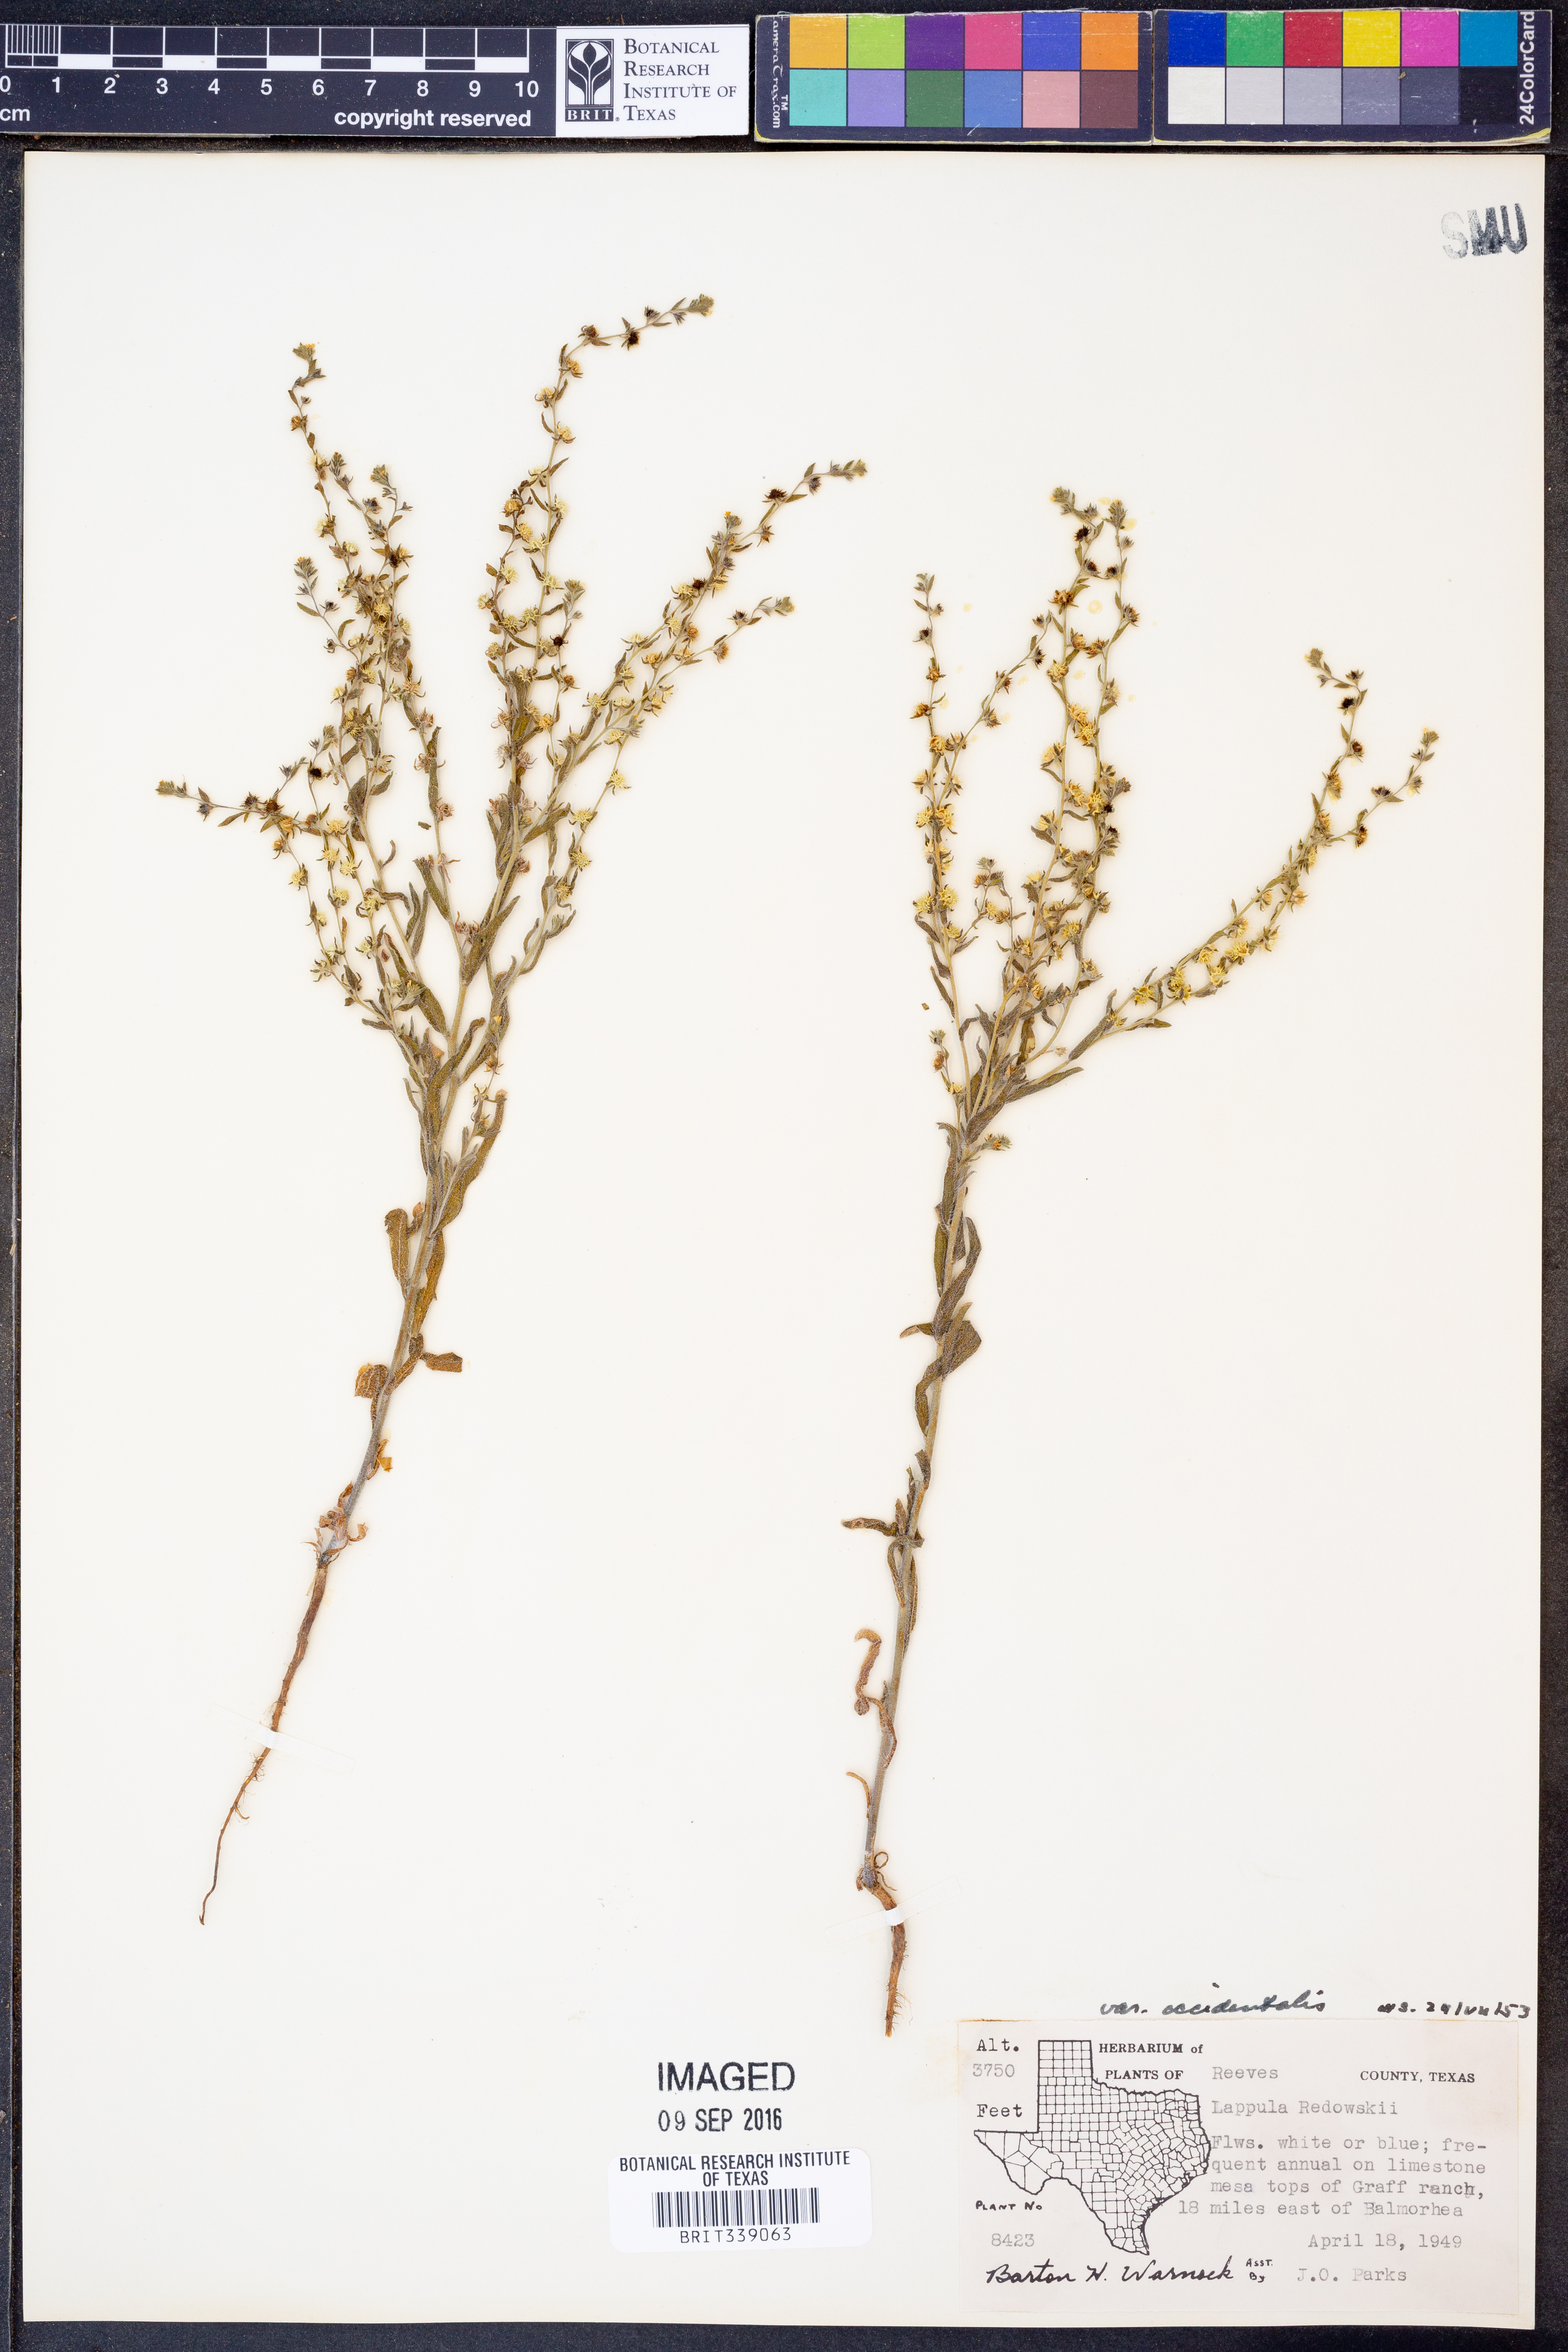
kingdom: Plantae
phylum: Tracheophyta
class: Magnoliopsida
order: Boraginales
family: Boraginaceae
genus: Lappula
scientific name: Lappula occidentalis
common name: Western stickseed
